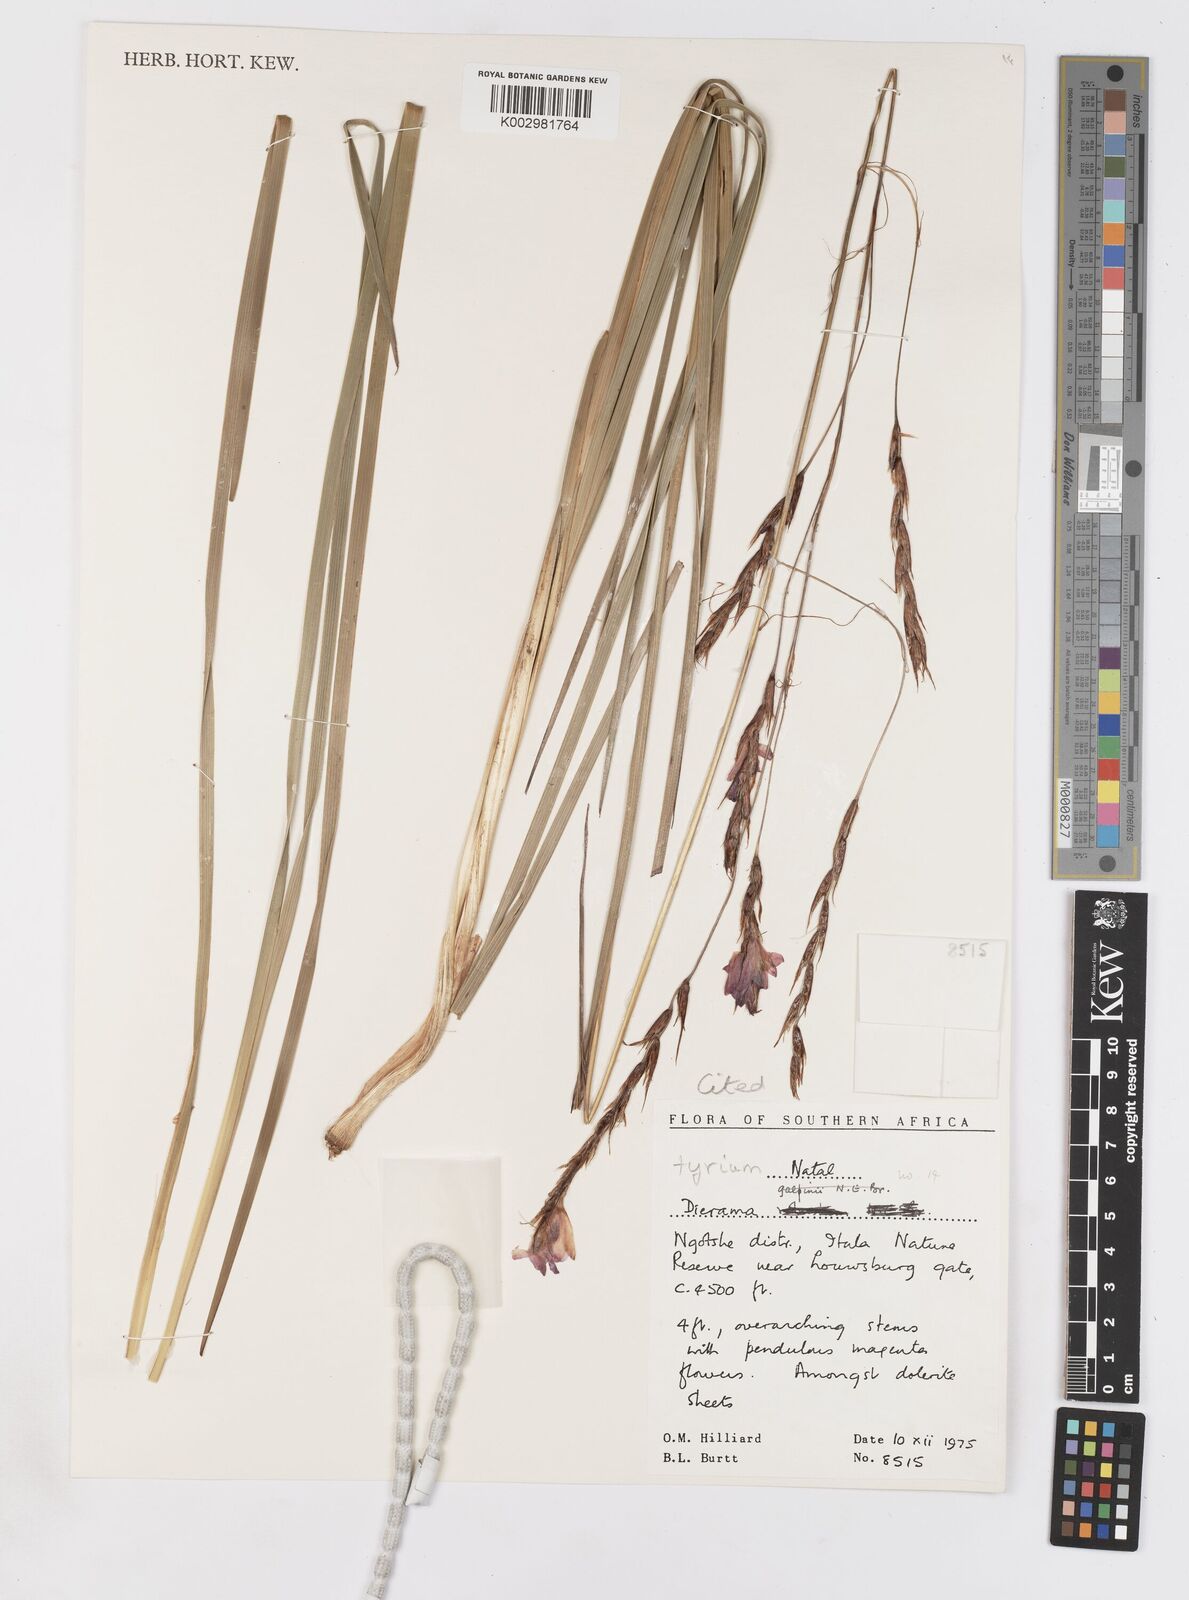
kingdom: Plantae
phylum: Tracheophyta
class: Liliopsida
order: Asparagales
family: Iridaceae
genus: Dierama
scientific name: Dierama tyrium
